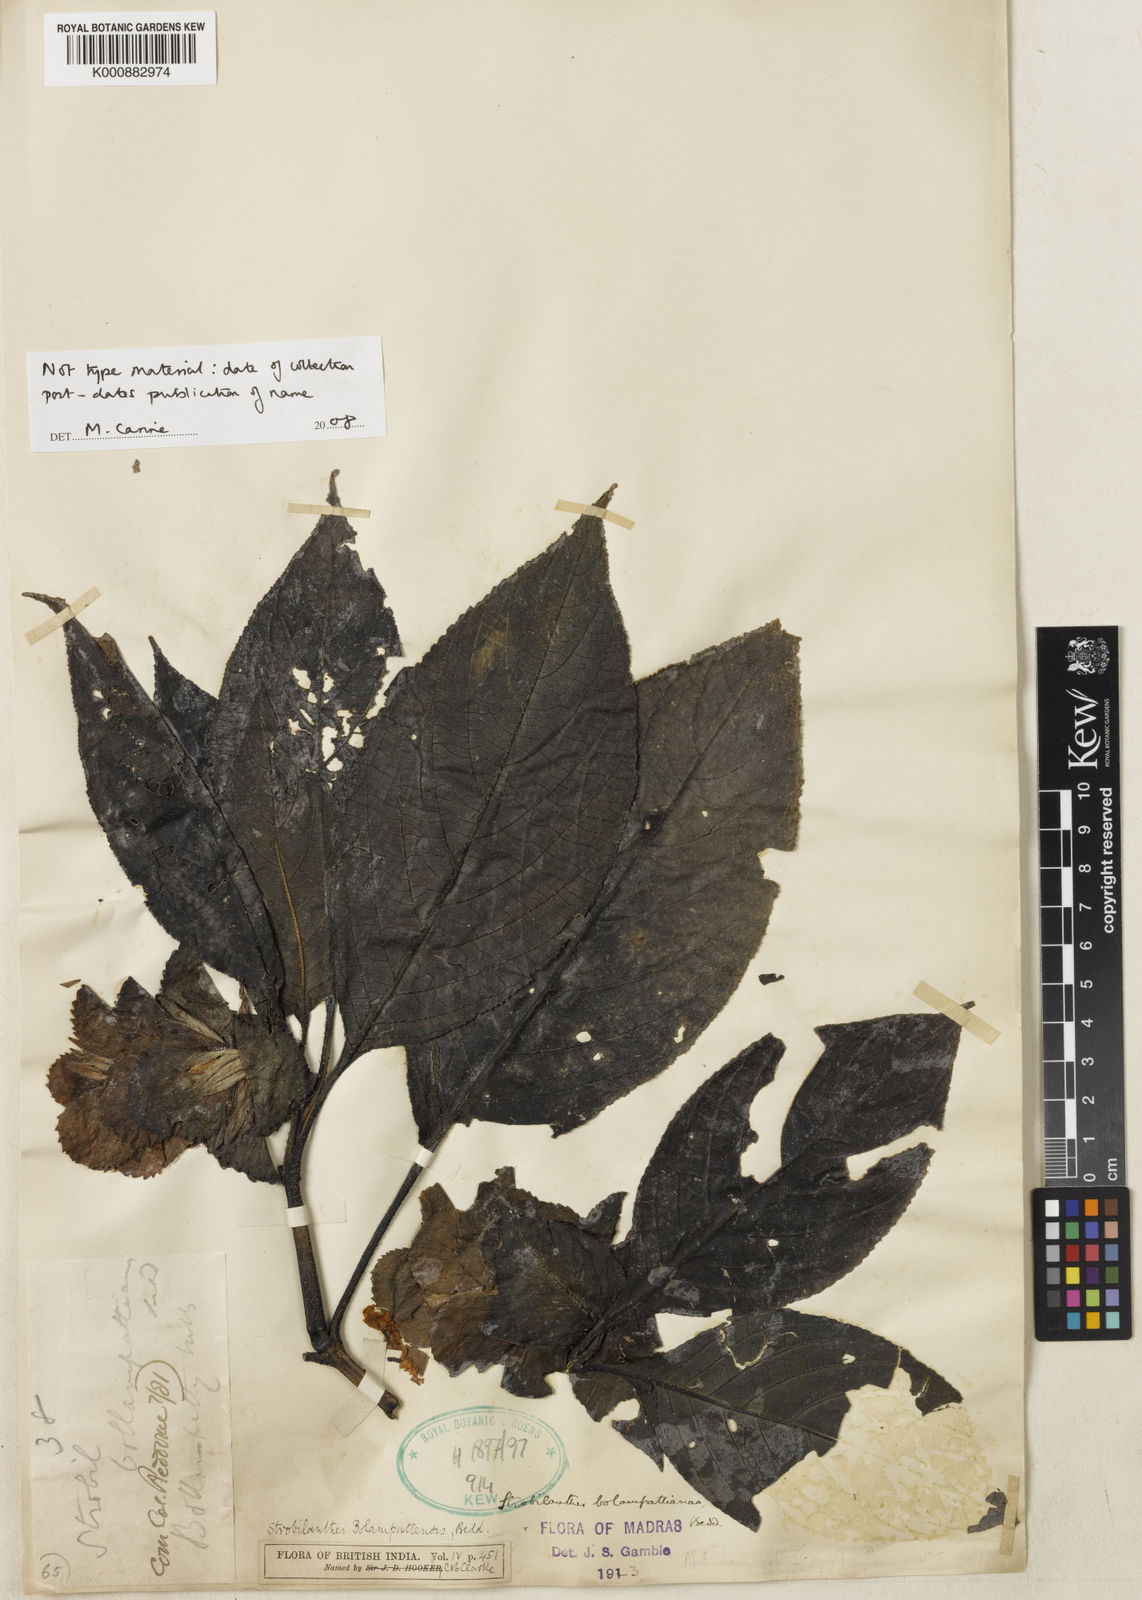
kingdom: Plantae
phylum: Tracheophyta
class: Magnoliopsida
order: Lamiales
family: Acanthaceae
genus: Strobilanthes
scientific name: Strobilanthes bolumpattiana
